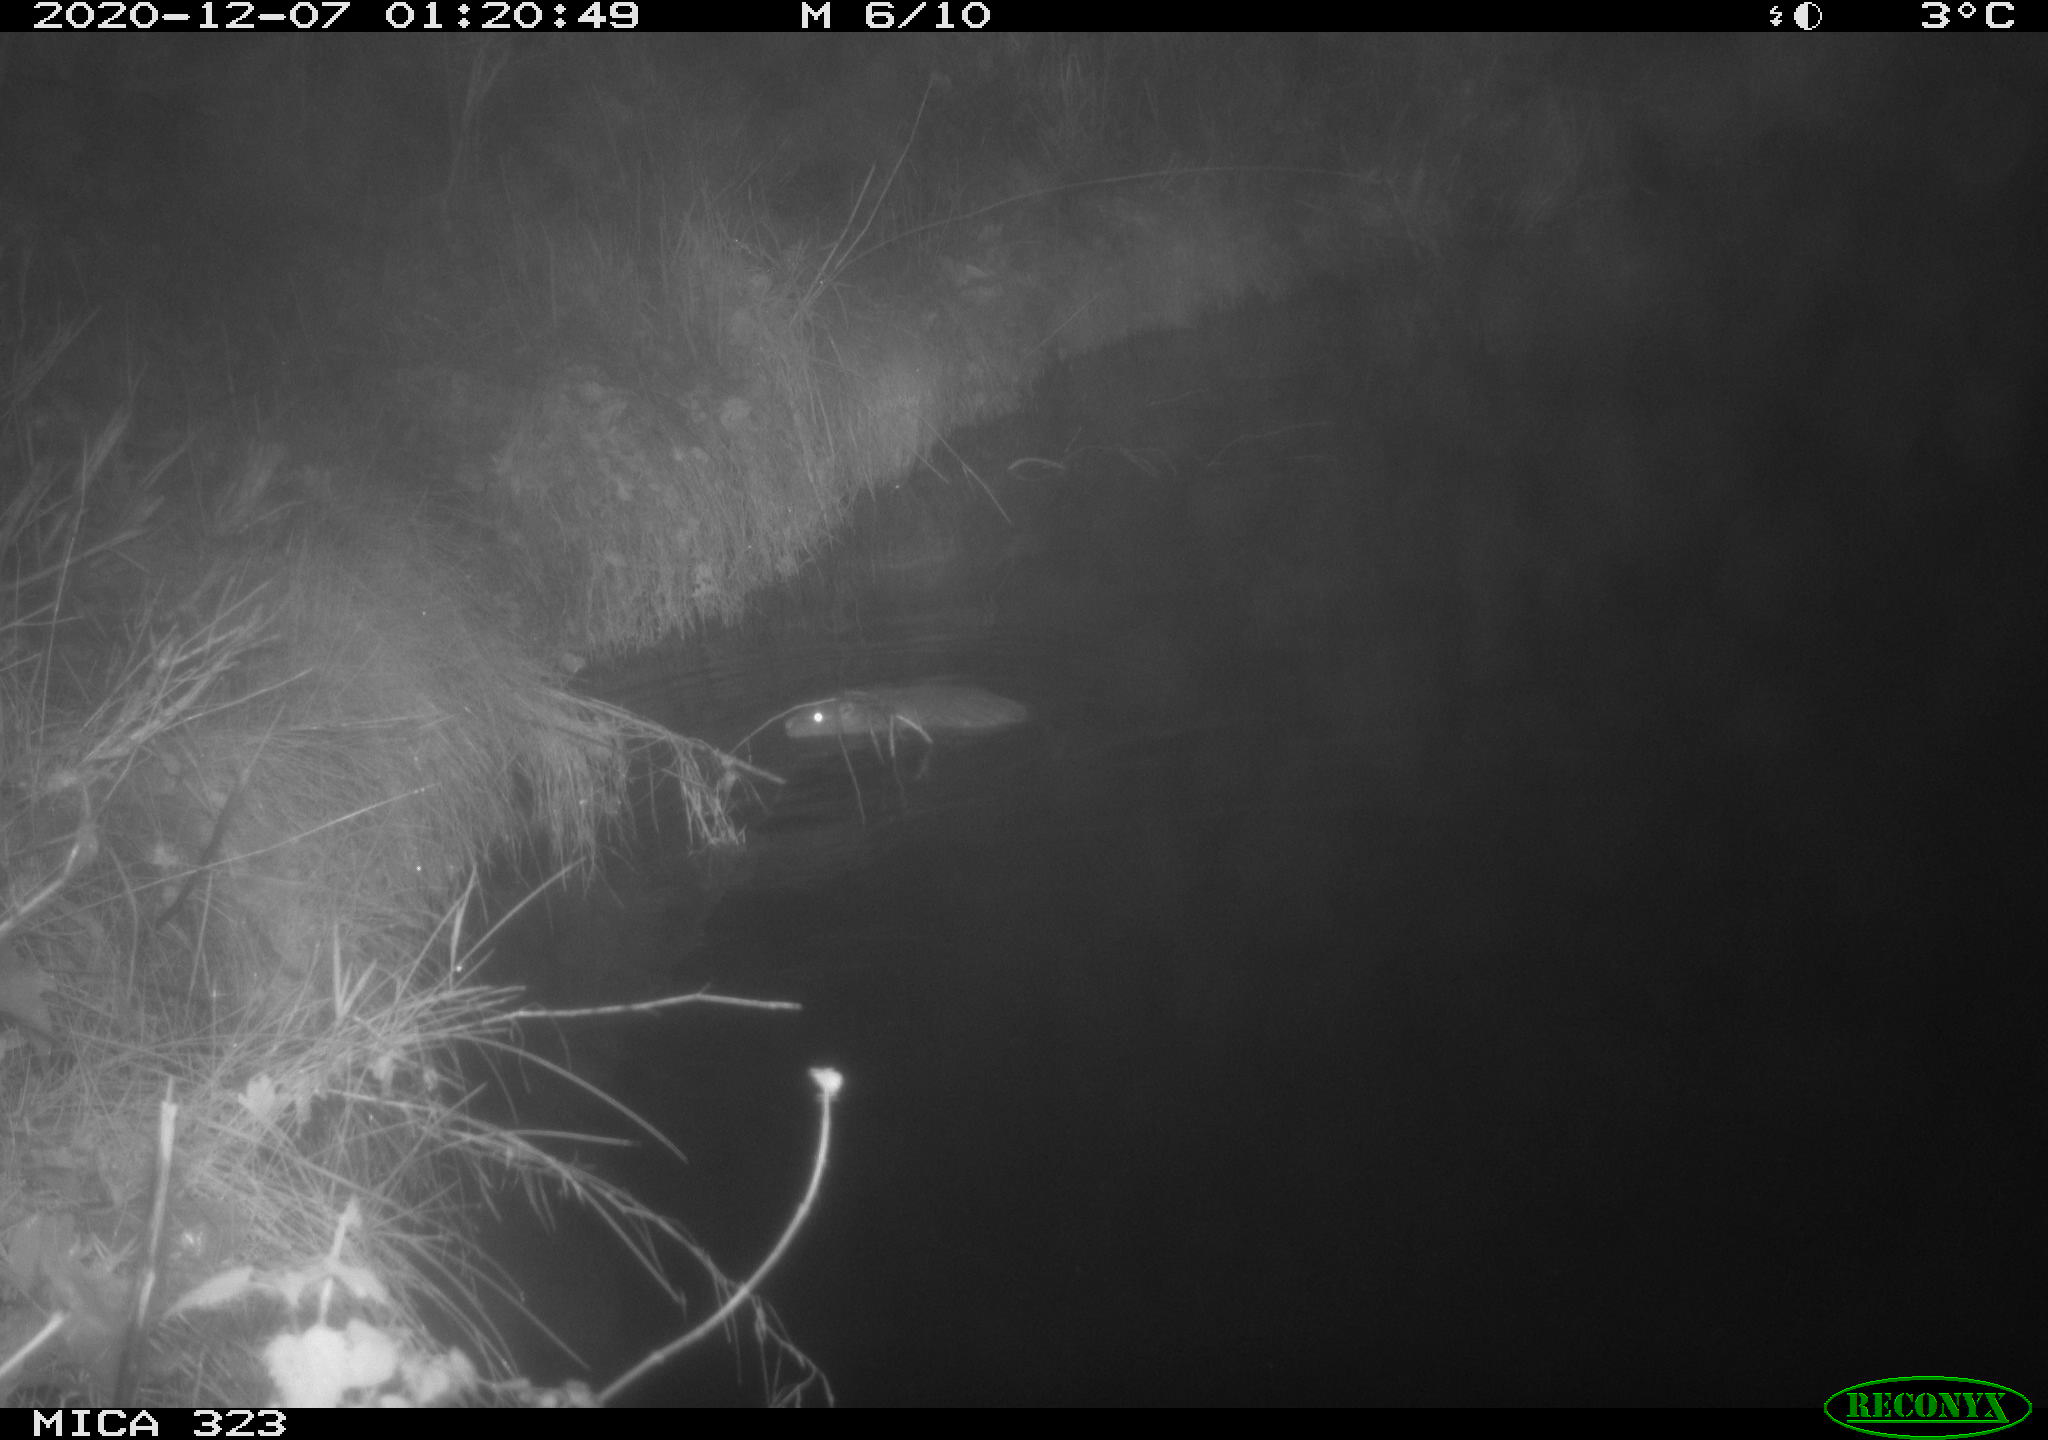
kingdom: Animalia
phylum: Chordata
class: Mammalia
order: Rodentia
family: Myocastoridae
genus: Myocastor
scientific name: Myocastor coypus
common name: Coypu
